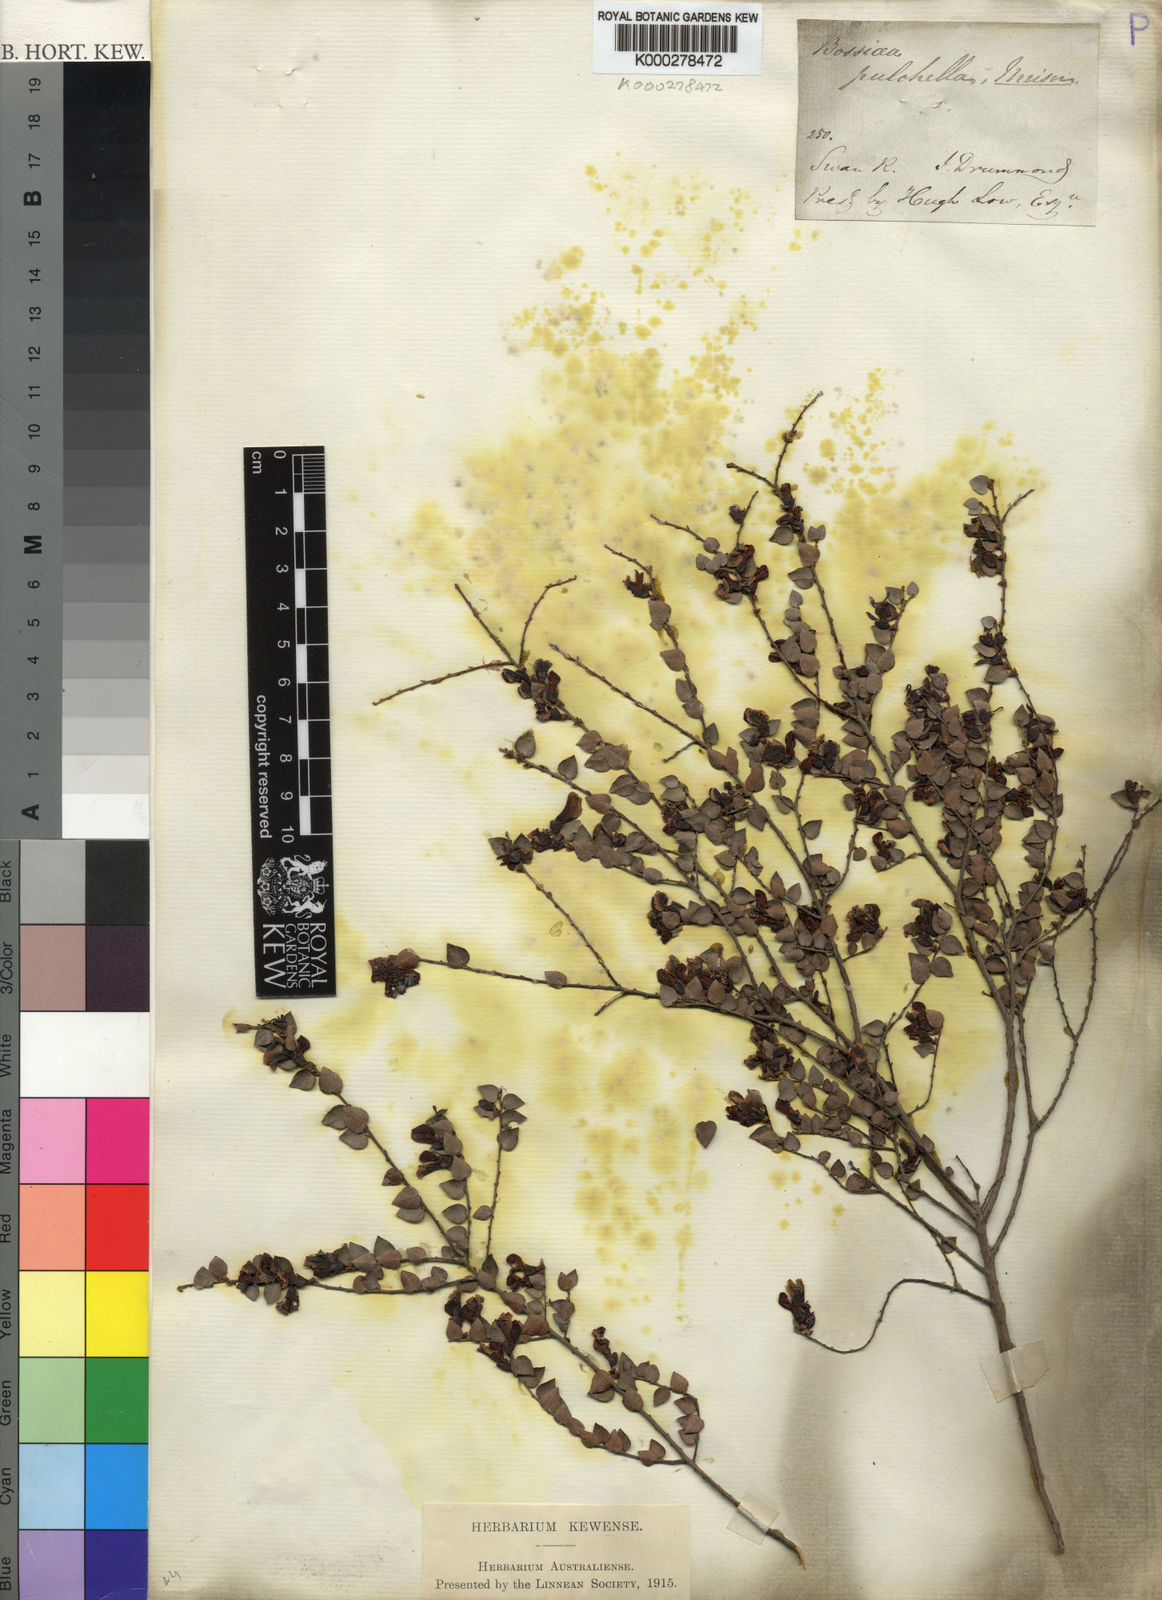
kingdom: Plantae
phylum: Tracheophyta
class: Magnoliopsida
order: Fabales
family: Fabaceae
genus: Bossiaea
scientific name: Bossiaea pulchella
